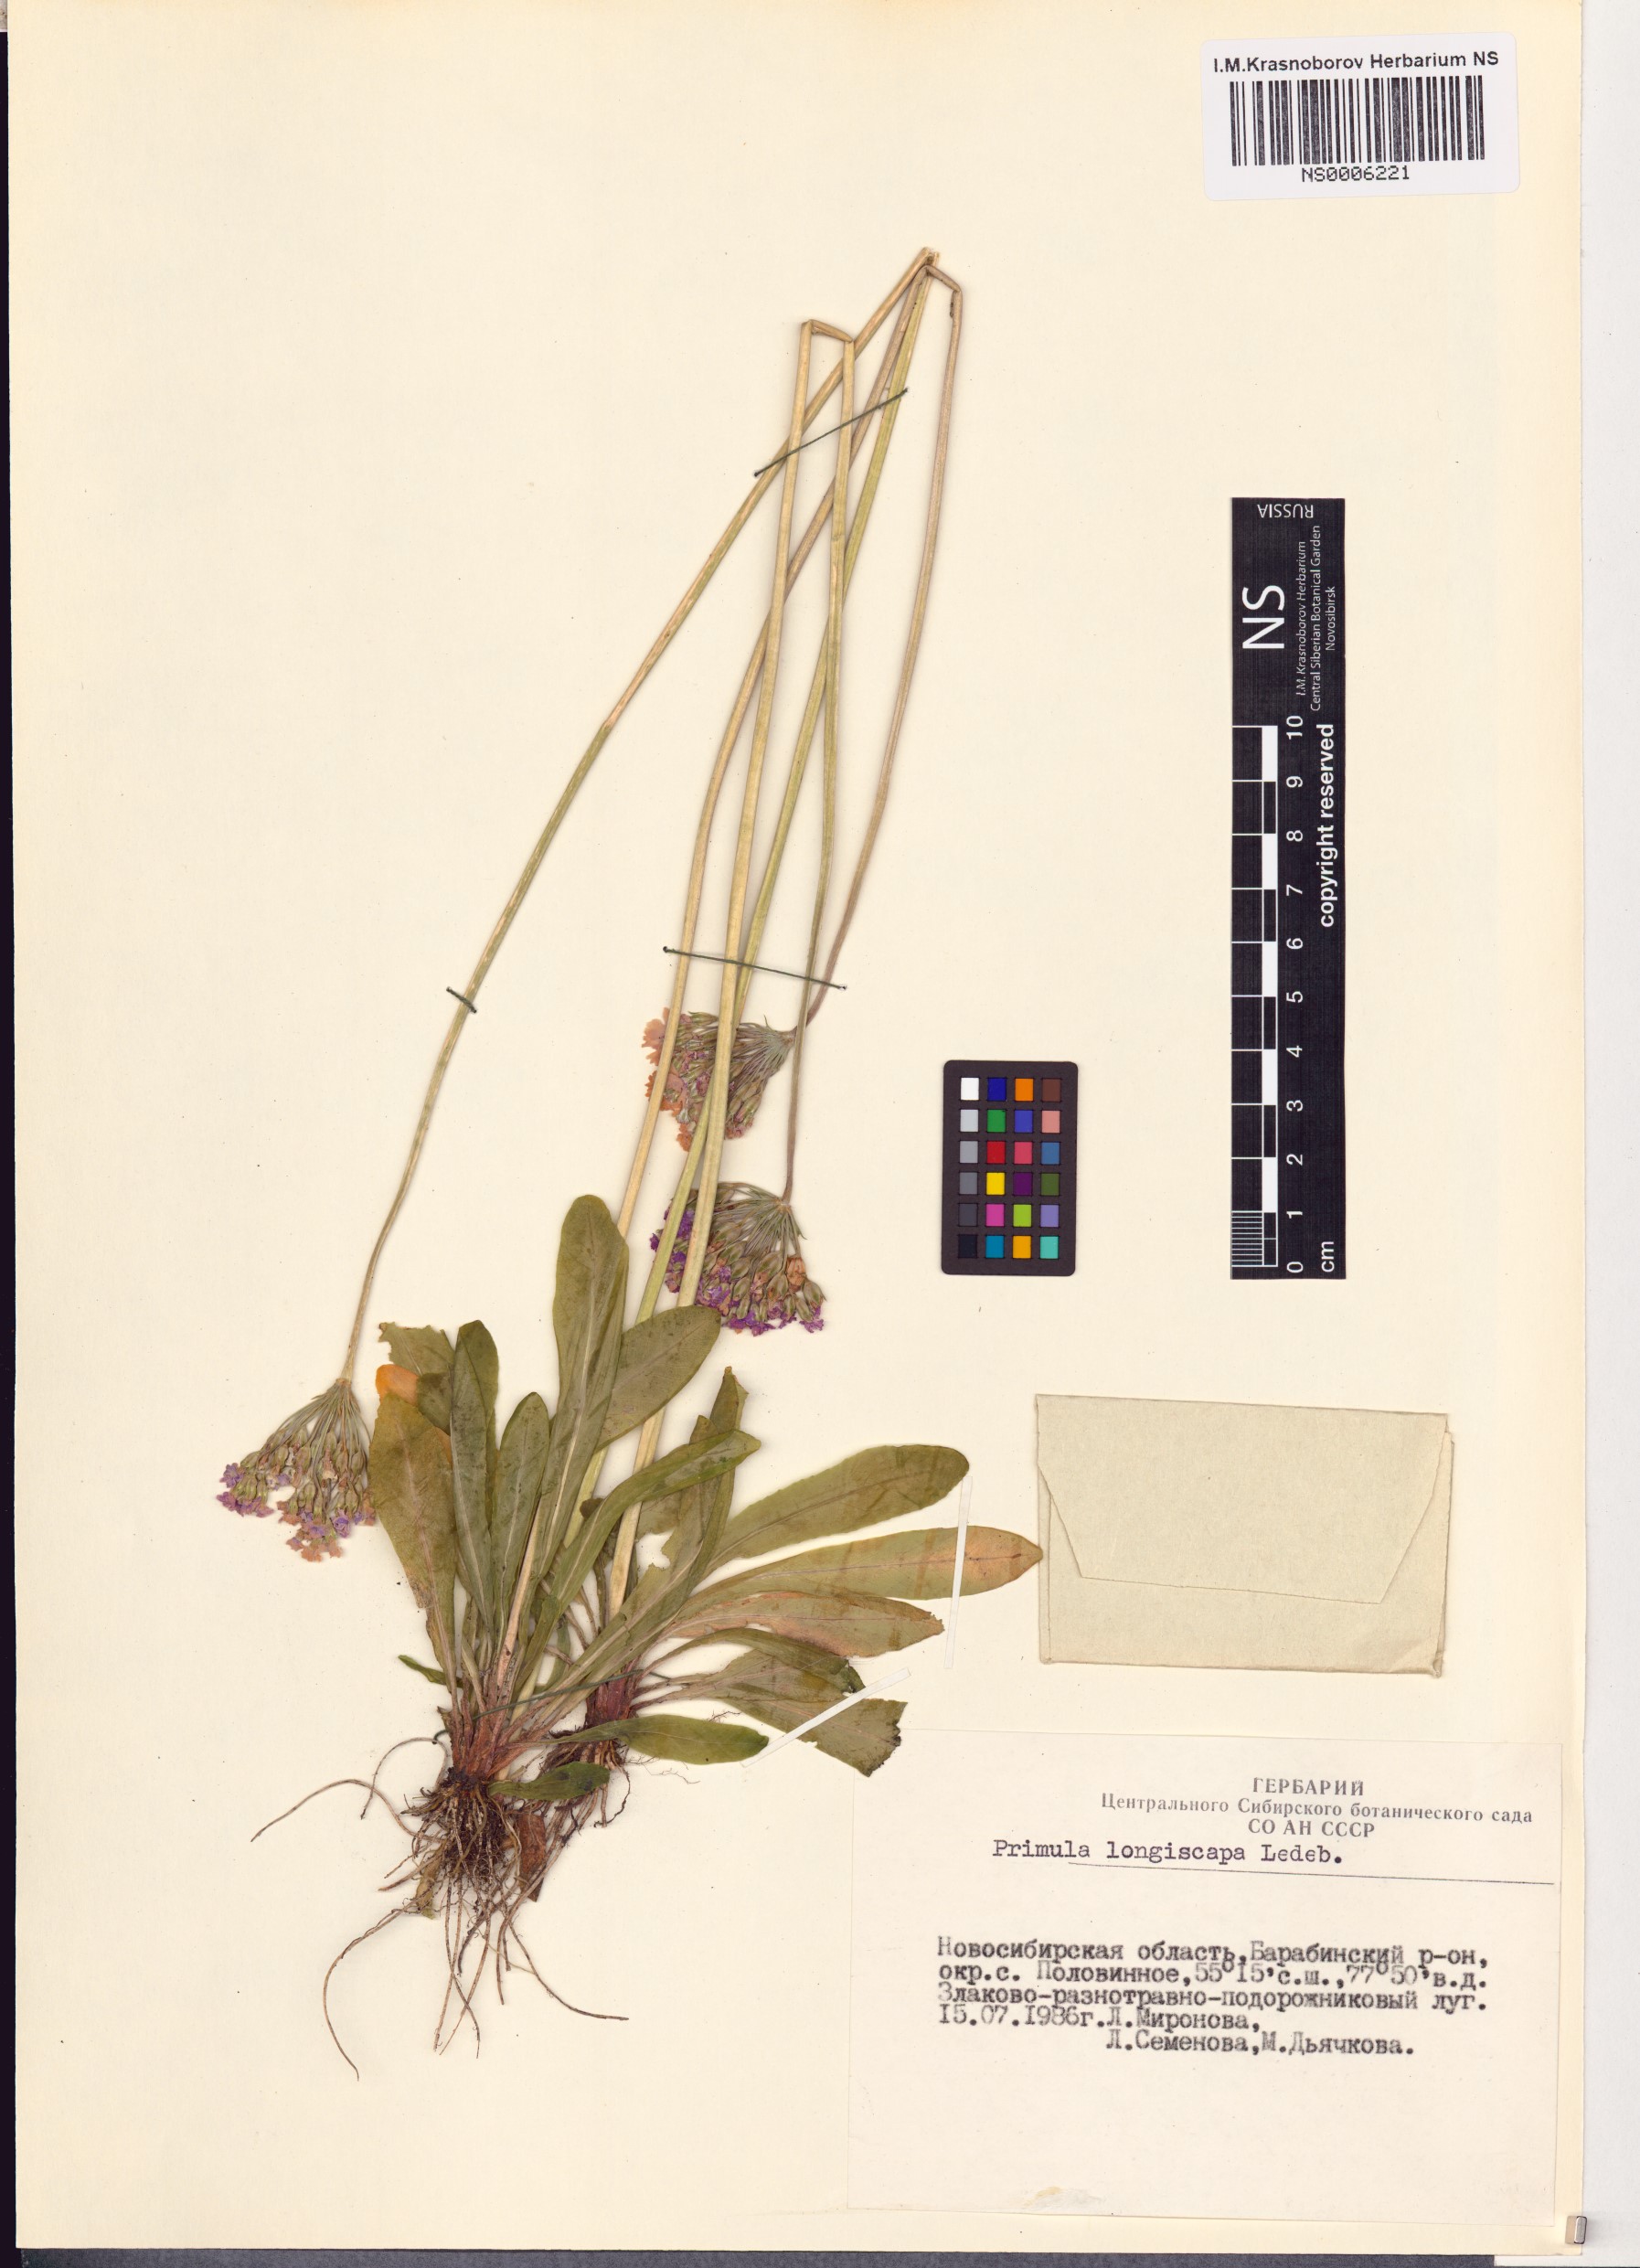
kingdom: Plantae
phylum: Tracheophyta
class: Magnoliopsida
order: Ericales
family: Primulaceae
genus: Primula
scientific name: Primula longiscapa
